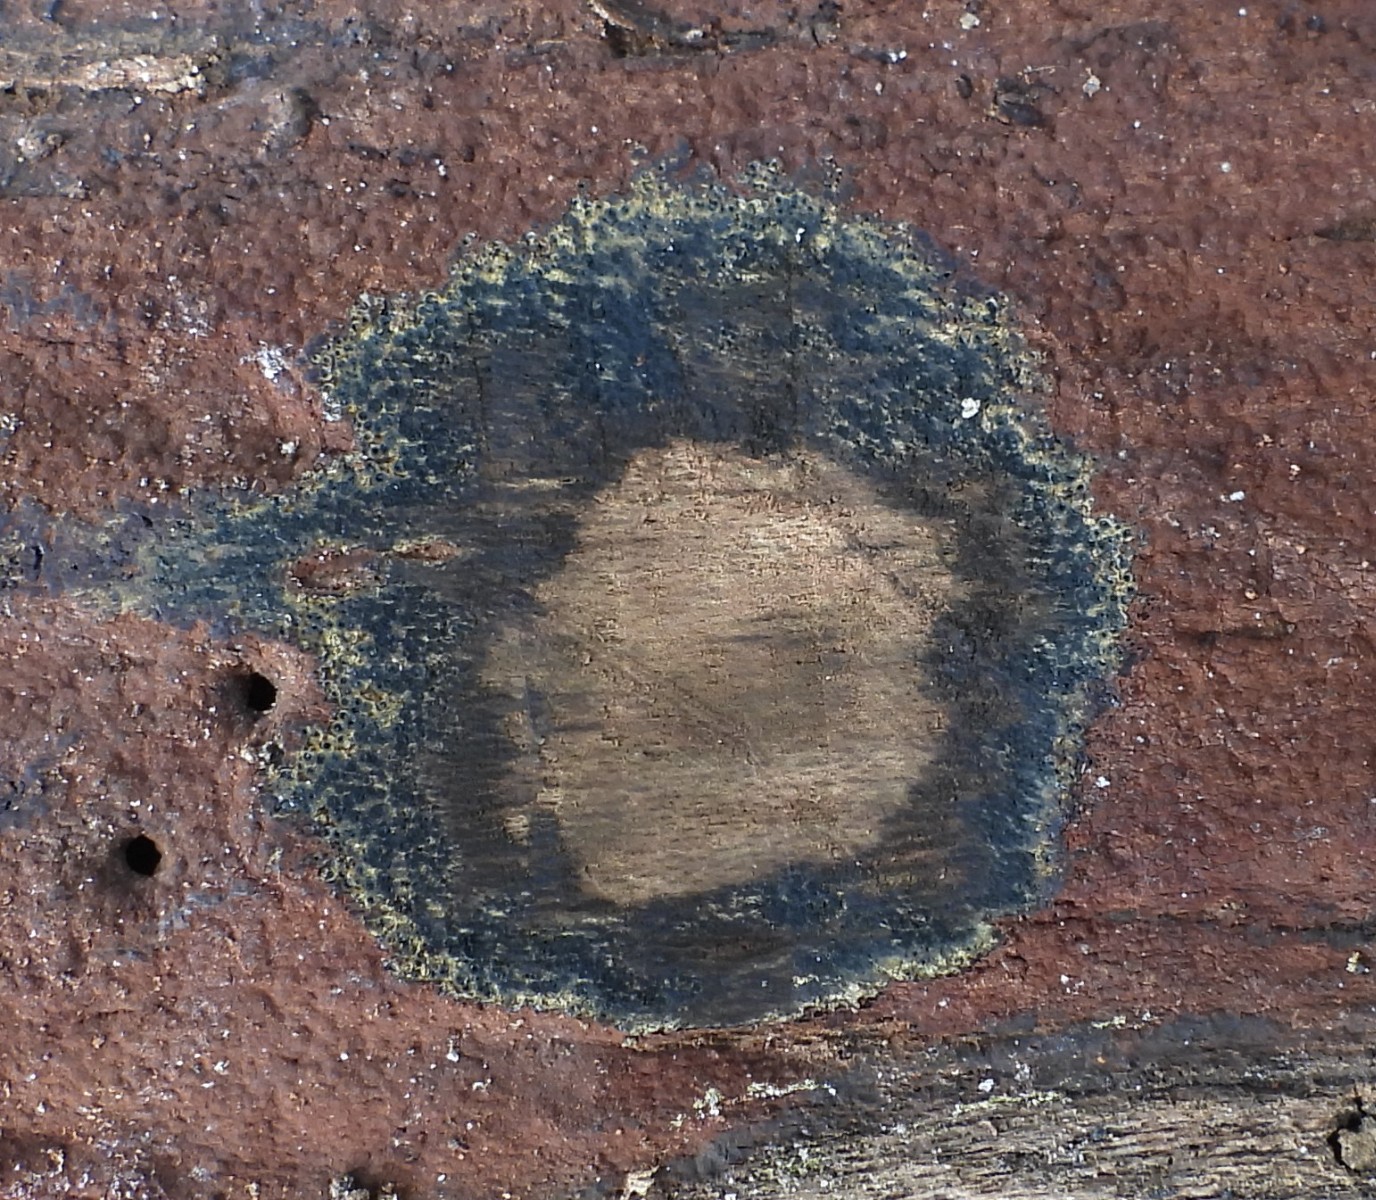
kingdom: Fungi
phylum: Ascomycota
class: Sordariomycetes
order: Xylariales
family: Hypoxylaceae
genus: Hypoxylon
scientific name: Hypoxylon macrocarpum
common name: skorpe-kulbær
